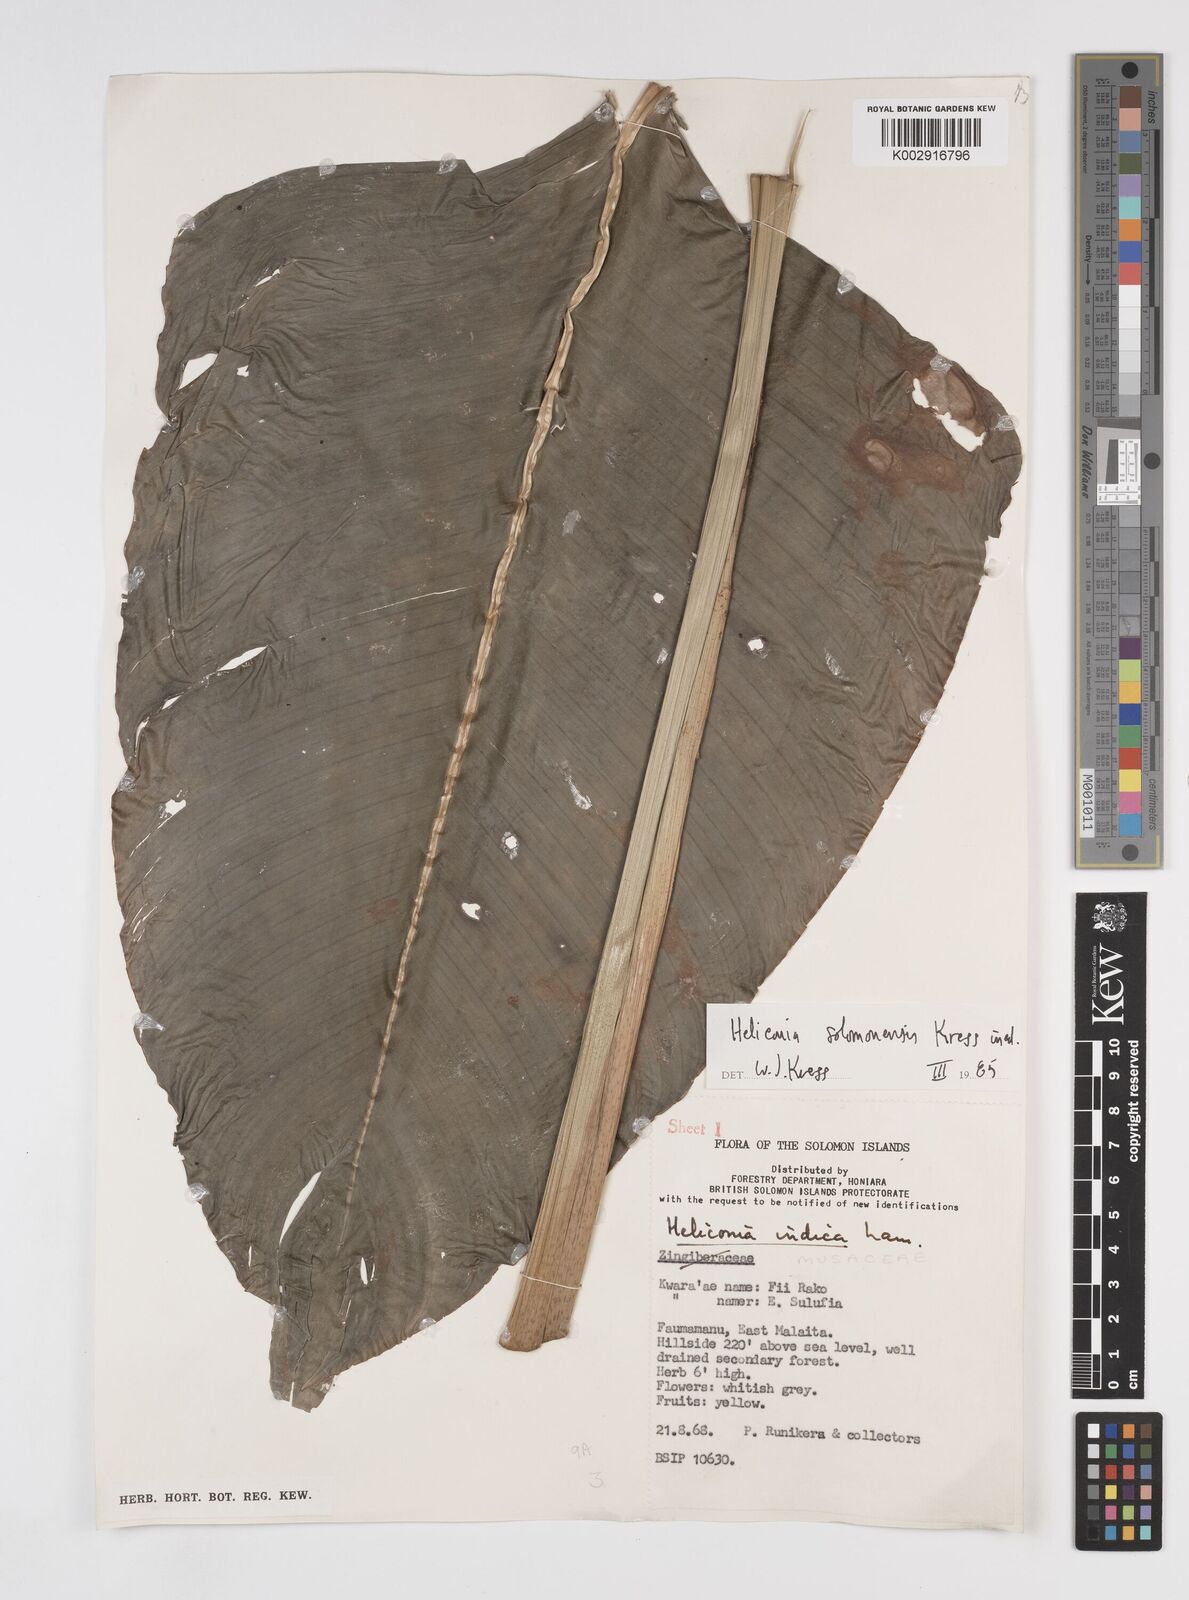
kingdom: Plantae
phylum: Tracheophyta
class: Liliopsida
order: Zingiberales
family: Heliconiaceae
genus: Heliconia
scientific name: Heliconia solomonensis
